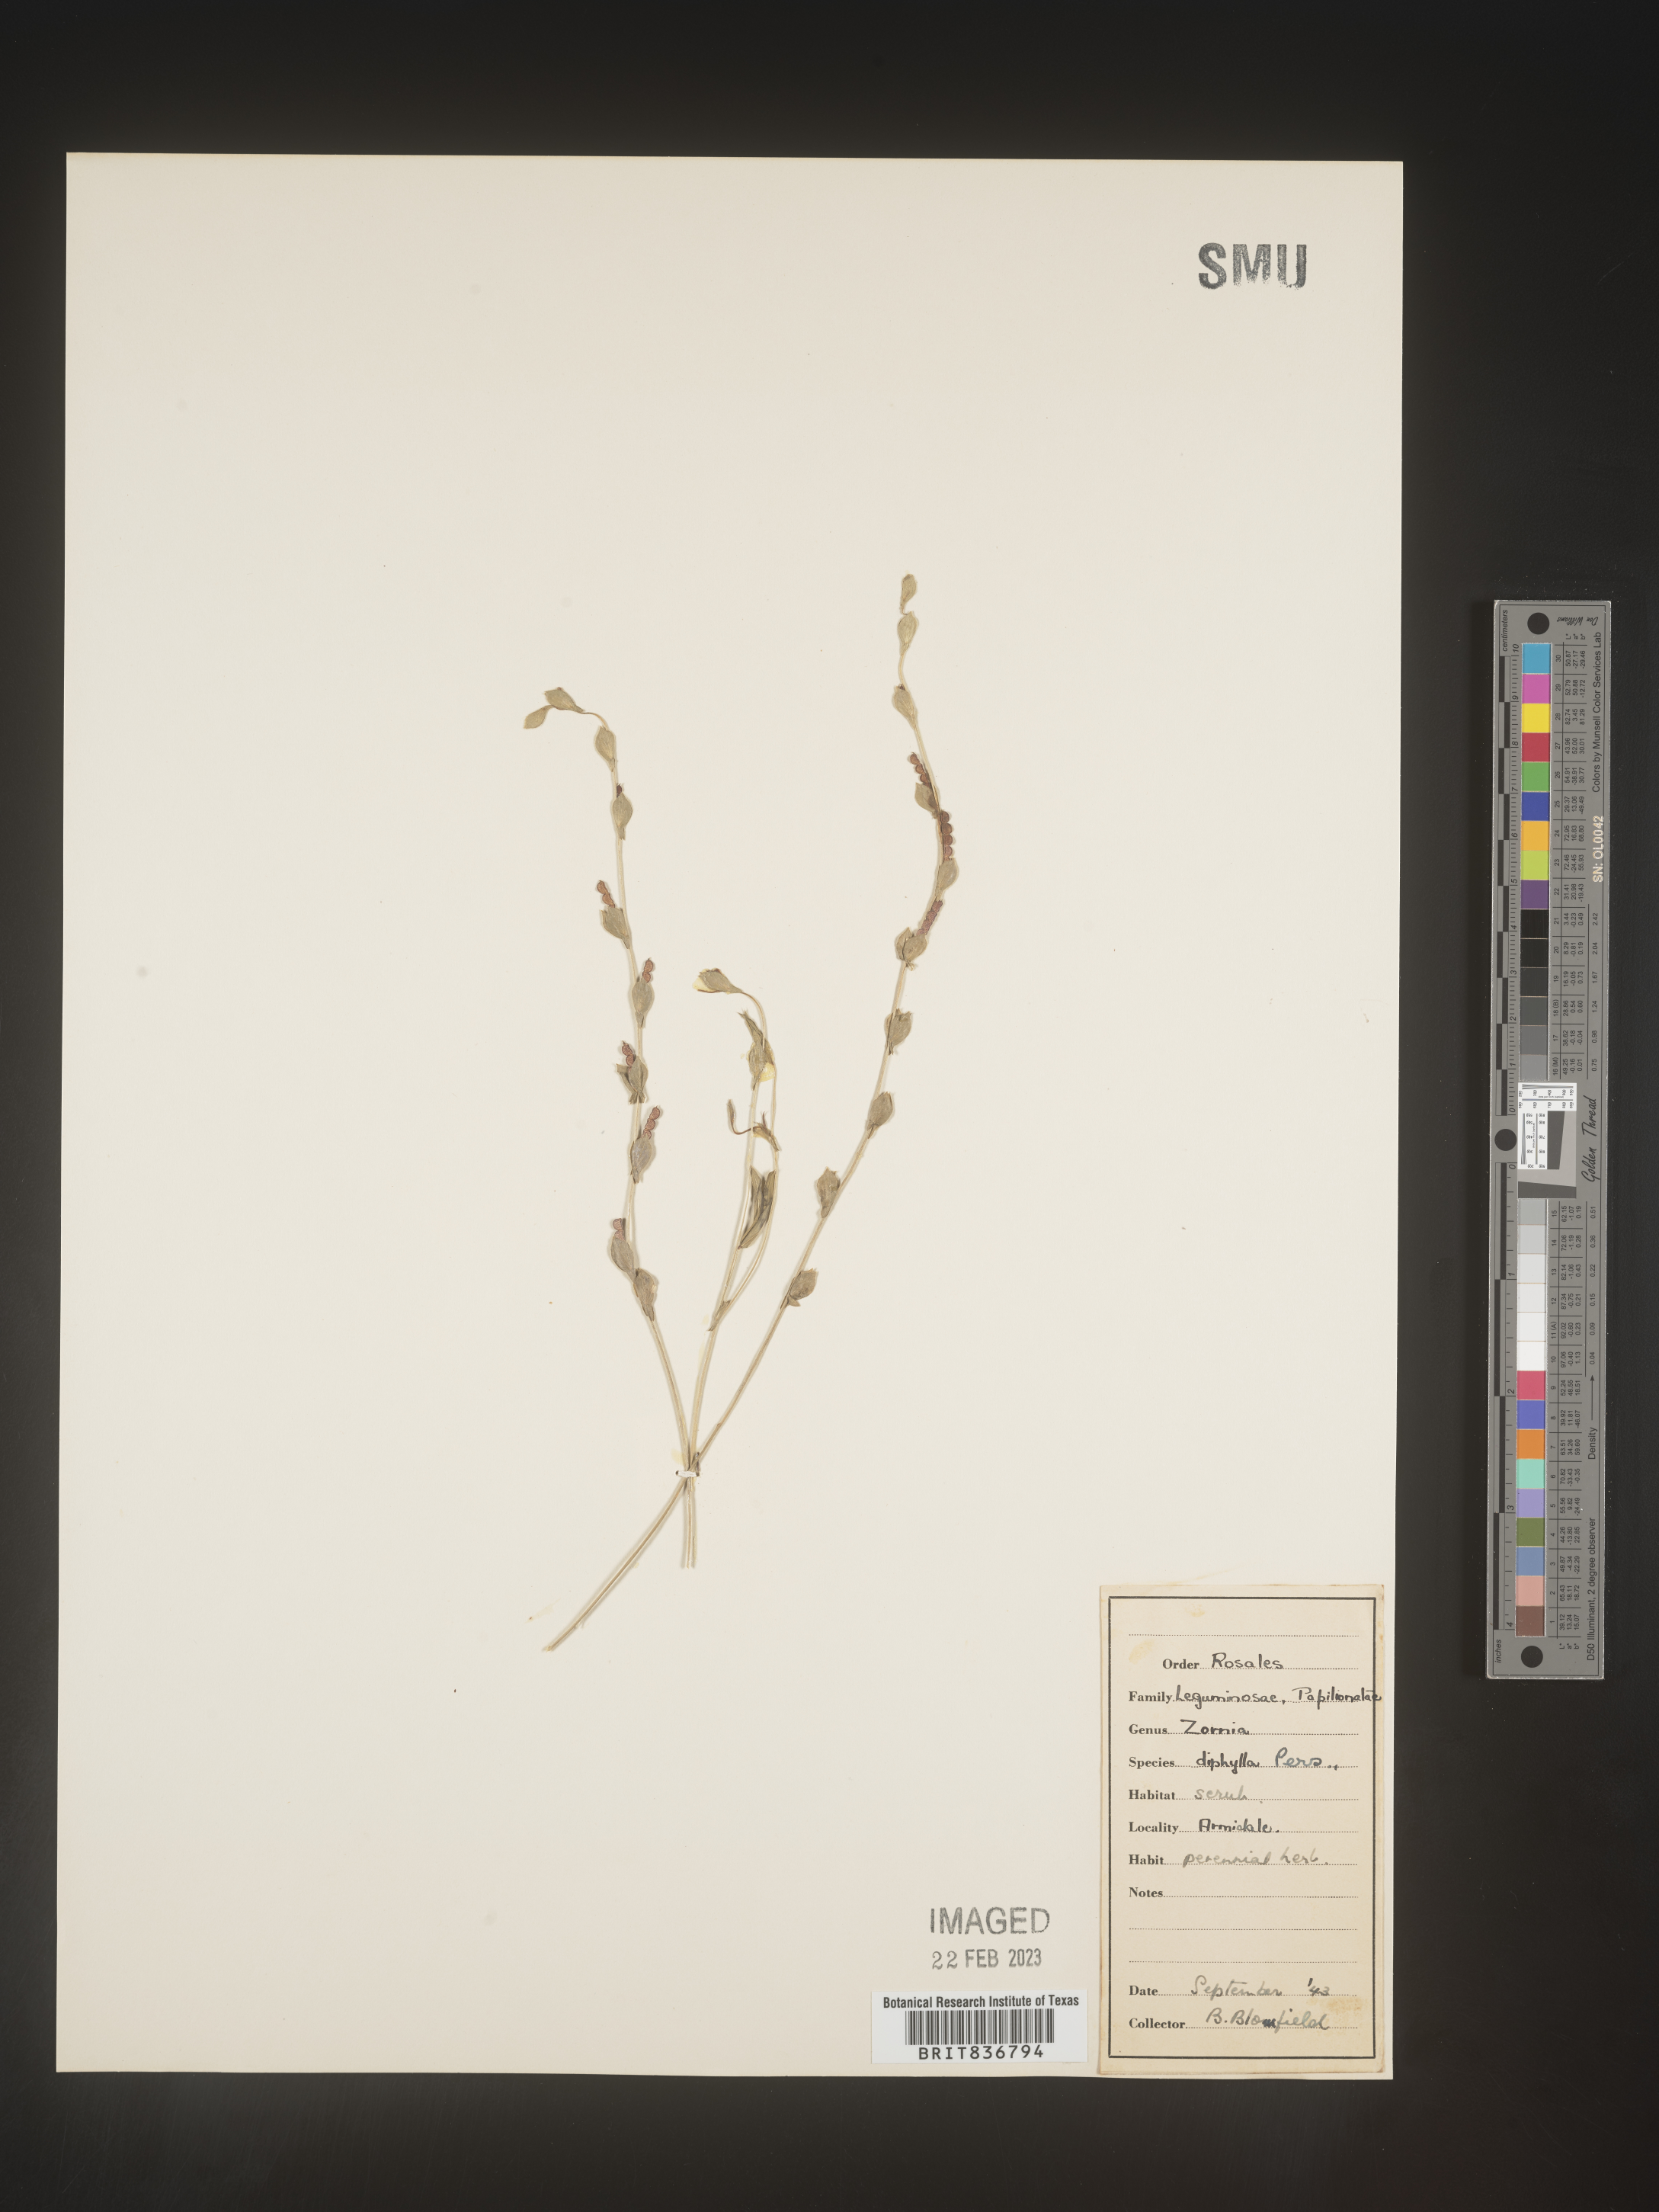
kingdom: Plantae
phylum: Tracheophyta
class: Magnoliopsida
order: Fabales
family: Fabaceae
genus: Zornia
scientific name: Zornia
